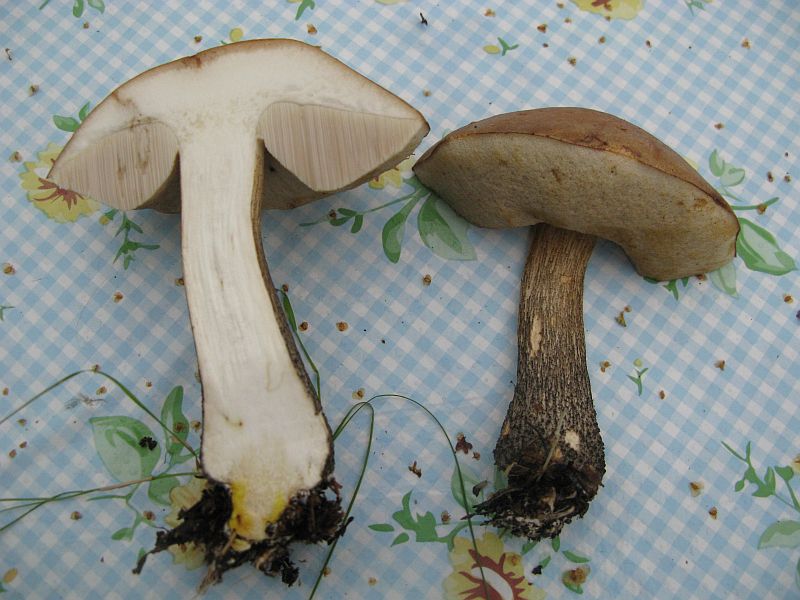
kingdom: Fungi
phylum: Basidiomycota
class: Agaricomycetes
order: Boletales
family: Boletaceae
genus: Leccinum
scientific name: Leccinum scabrum
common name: brun skælrørhat
